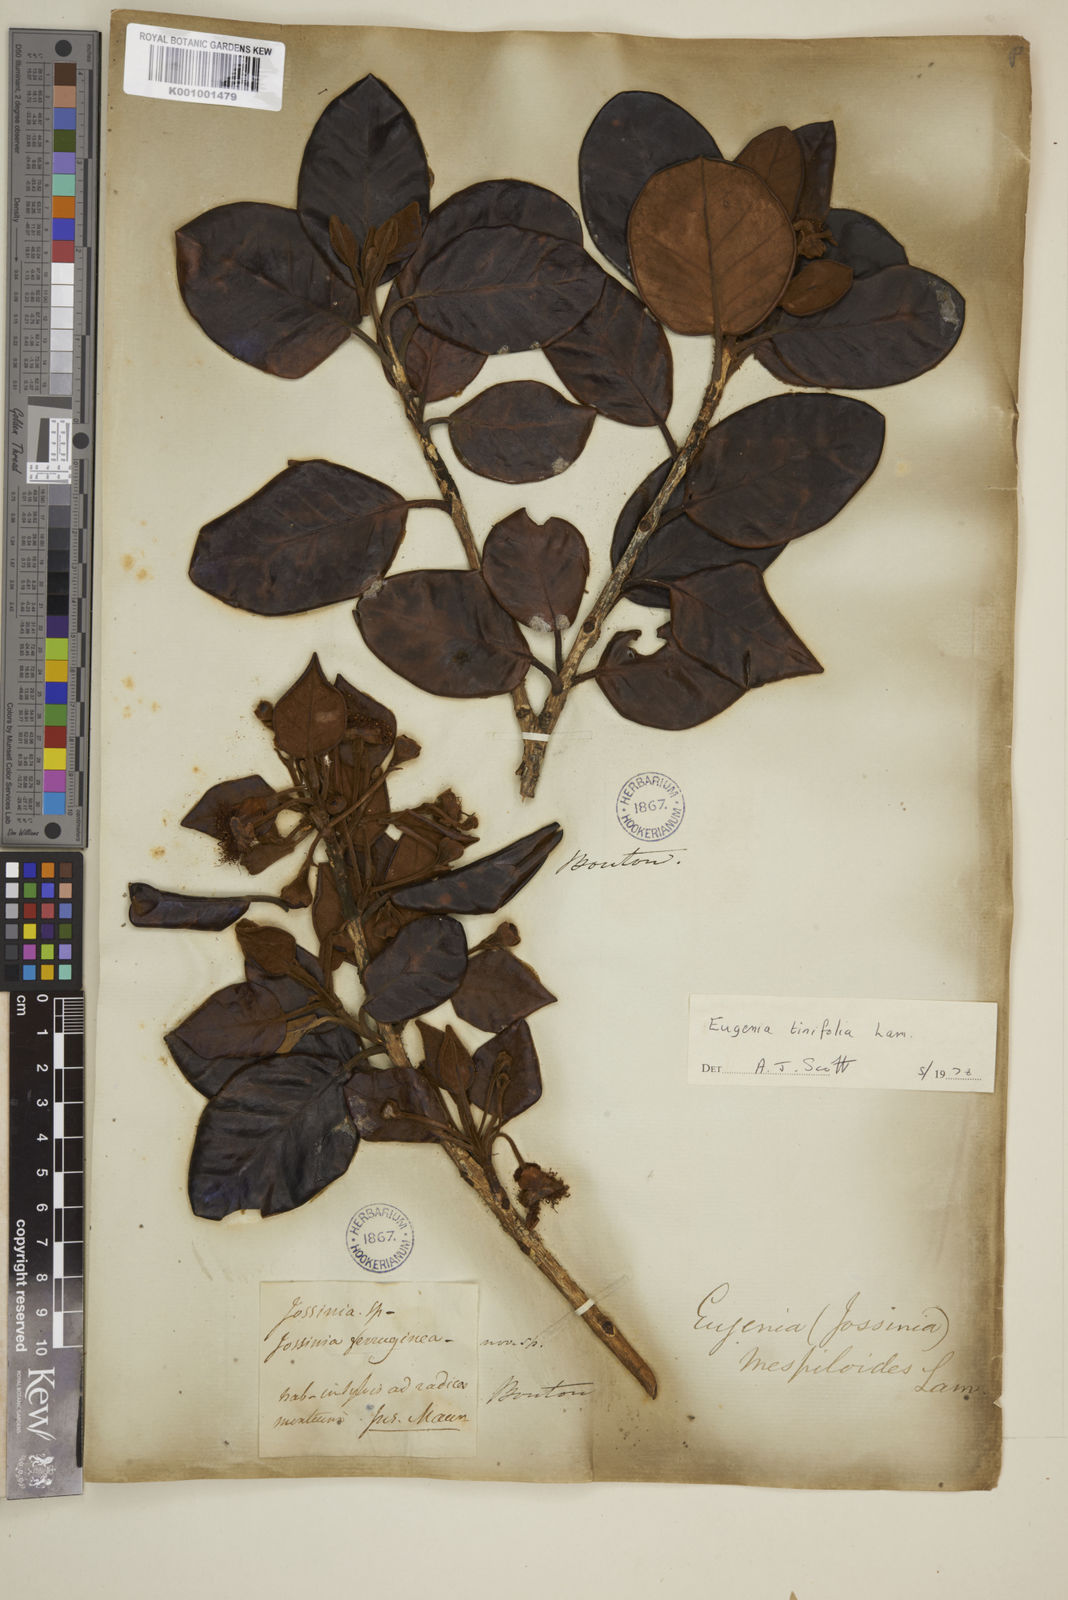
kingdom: Plantae
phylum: Tracheophyta
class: Magnoliopsida
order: Myrtales
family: Myrtaceae
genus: Eugenia
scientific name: Eugenia mespiloides
